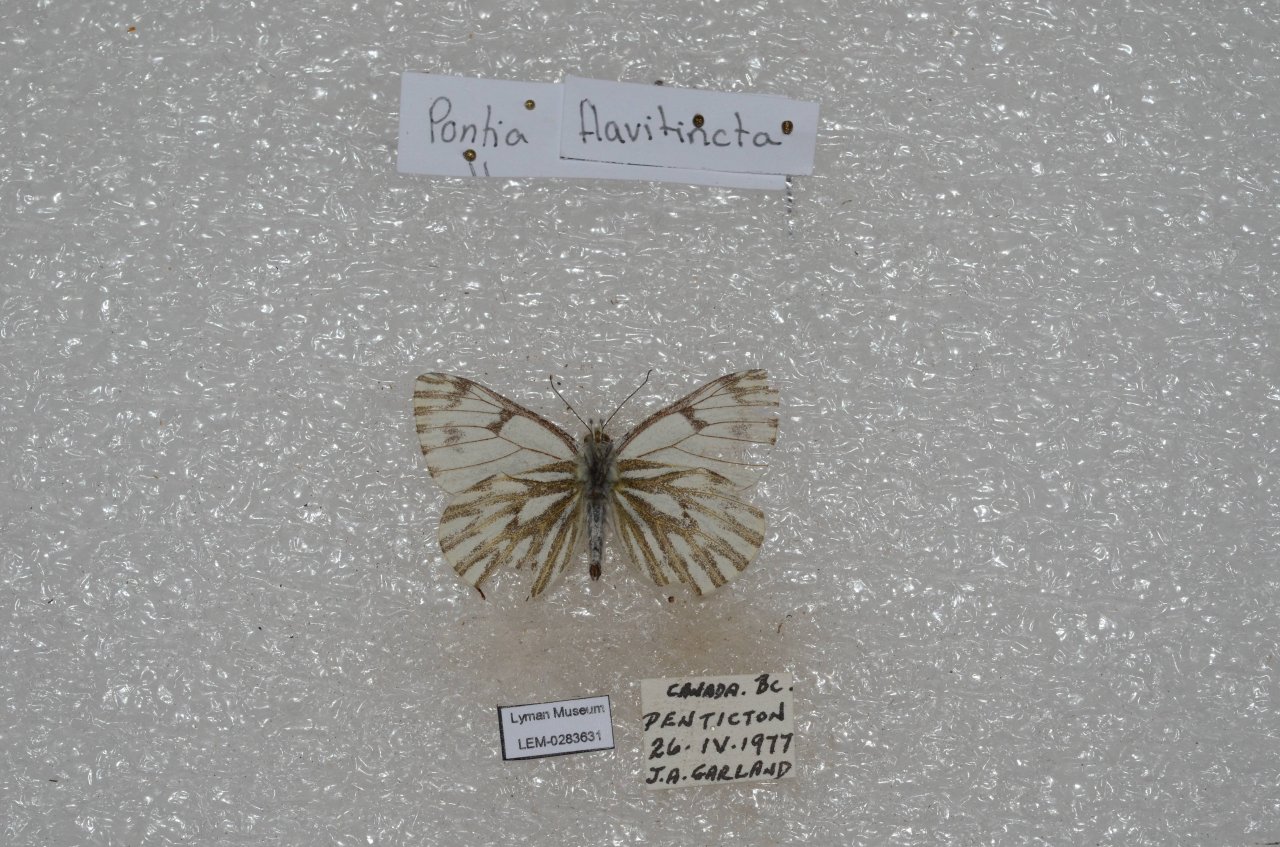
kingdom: Animalia
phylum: Arthropoda
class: Insecta
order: Lepidoptera
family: Pieridae
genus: Pontia
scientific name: Pontia sisymbrii
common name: Spring White
